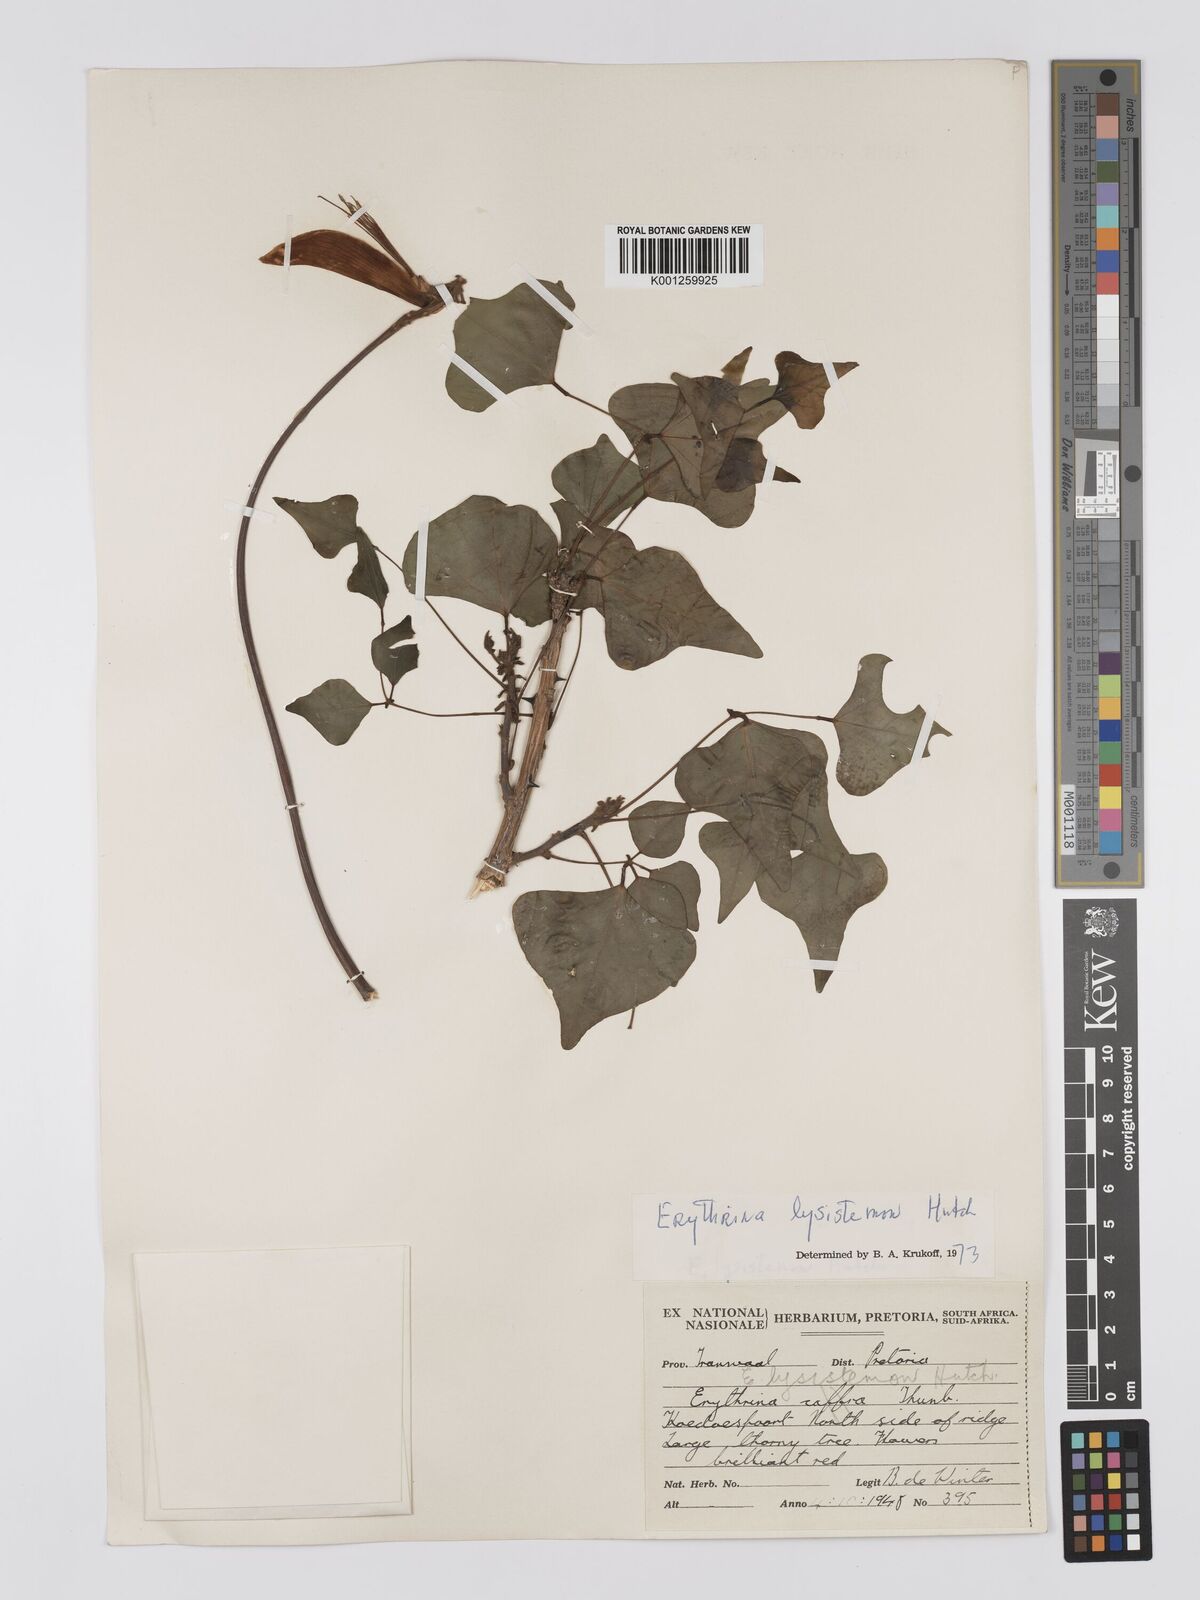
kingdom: Plantae
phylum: Tracheophyta
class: Magnoliopsida
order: Fabales
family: Fabaceae
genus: Erythrina
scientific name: Erythrina lysistemon
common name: Common coral tree
